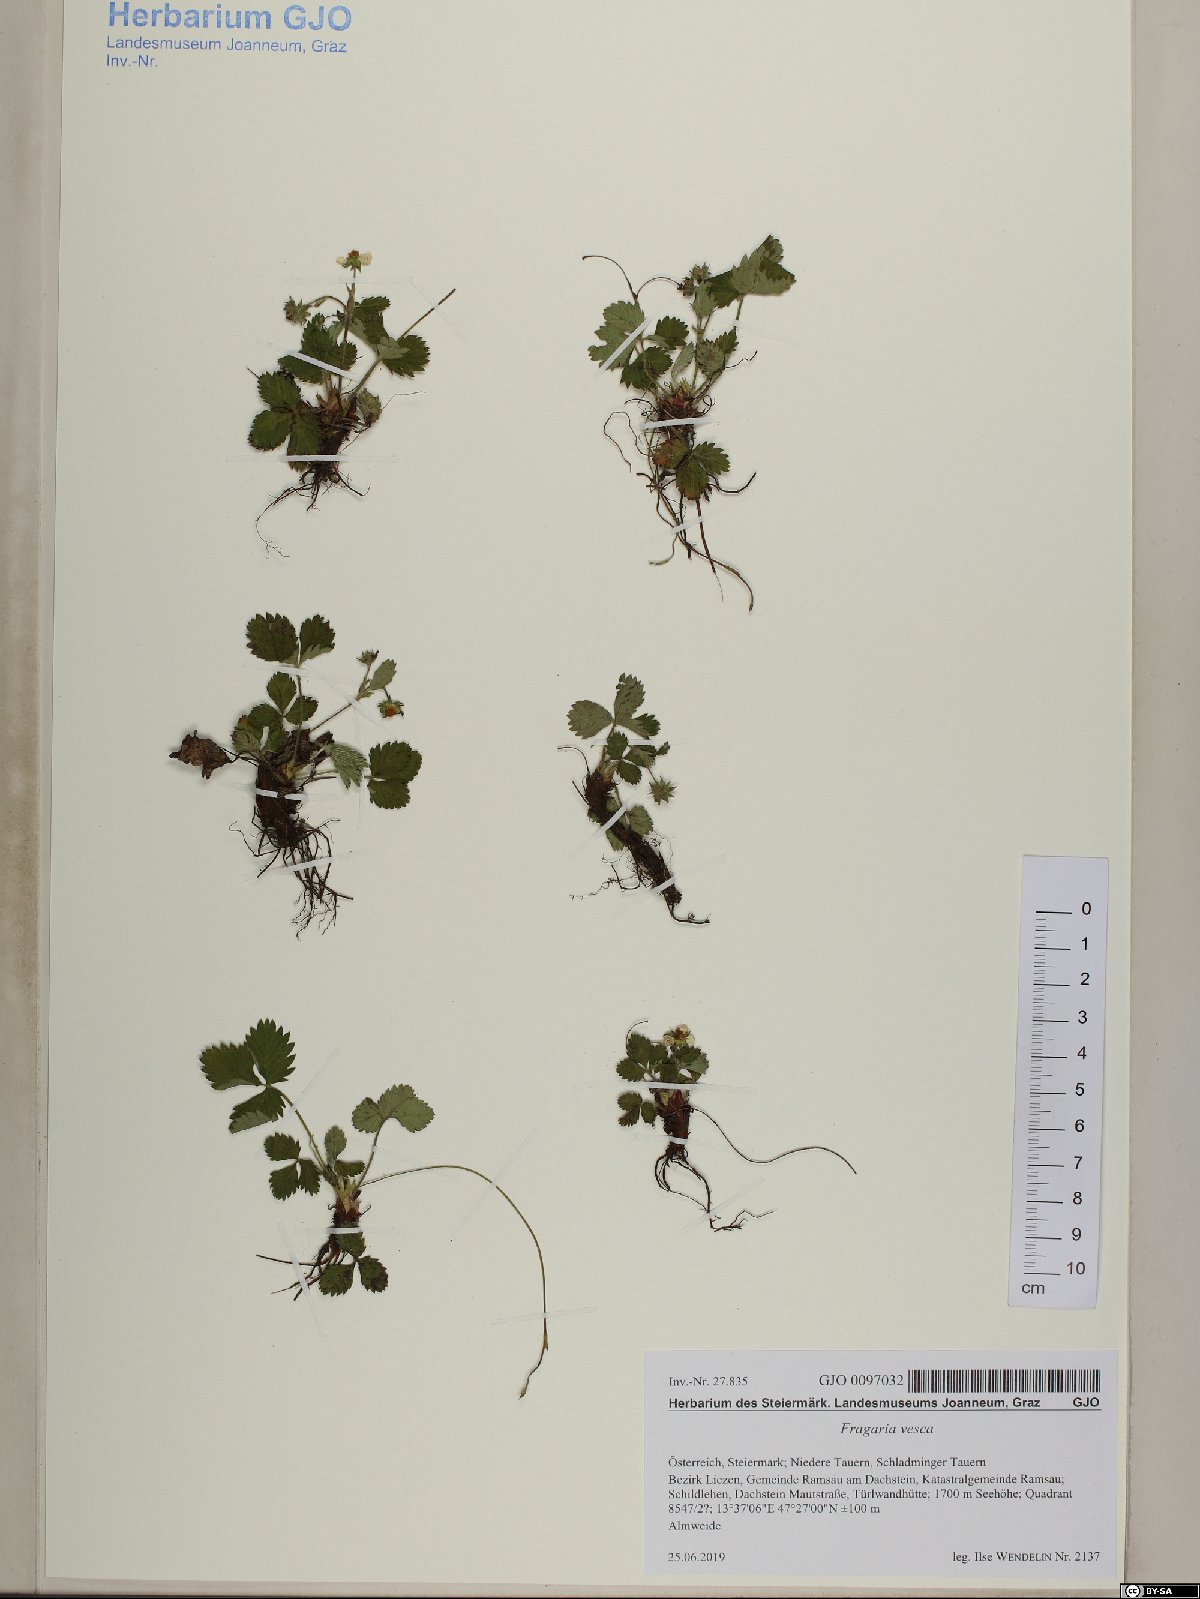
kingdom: Plantae
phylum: Tracheophyta
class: Magnoliopsida
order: Rosales
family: Rosaceae
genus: Fragaria
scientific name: Fragaria vesca
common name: Wild strawberry
